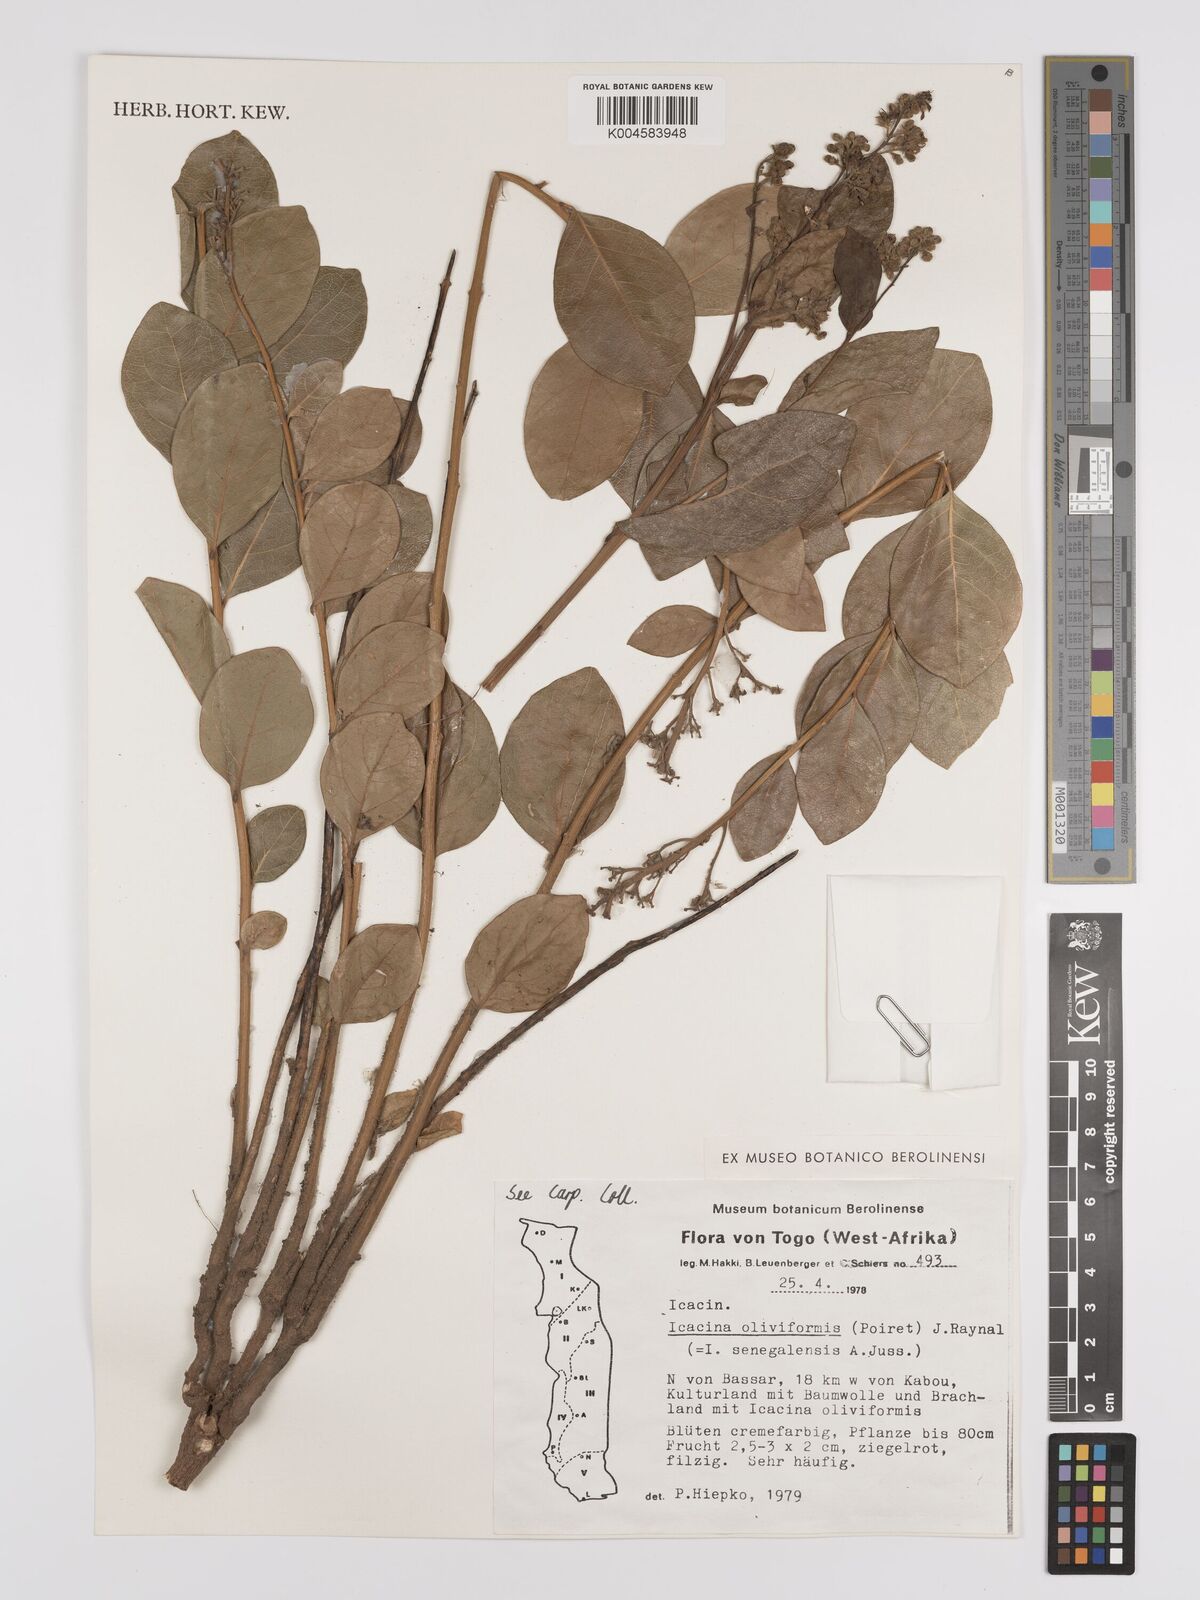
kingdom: Plantae
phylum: Tracheophyta
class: Magnoliopsida
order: Icacinales
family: Icacinaceae
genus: Icacina
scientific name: Icacina oliviformis
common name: False yam
